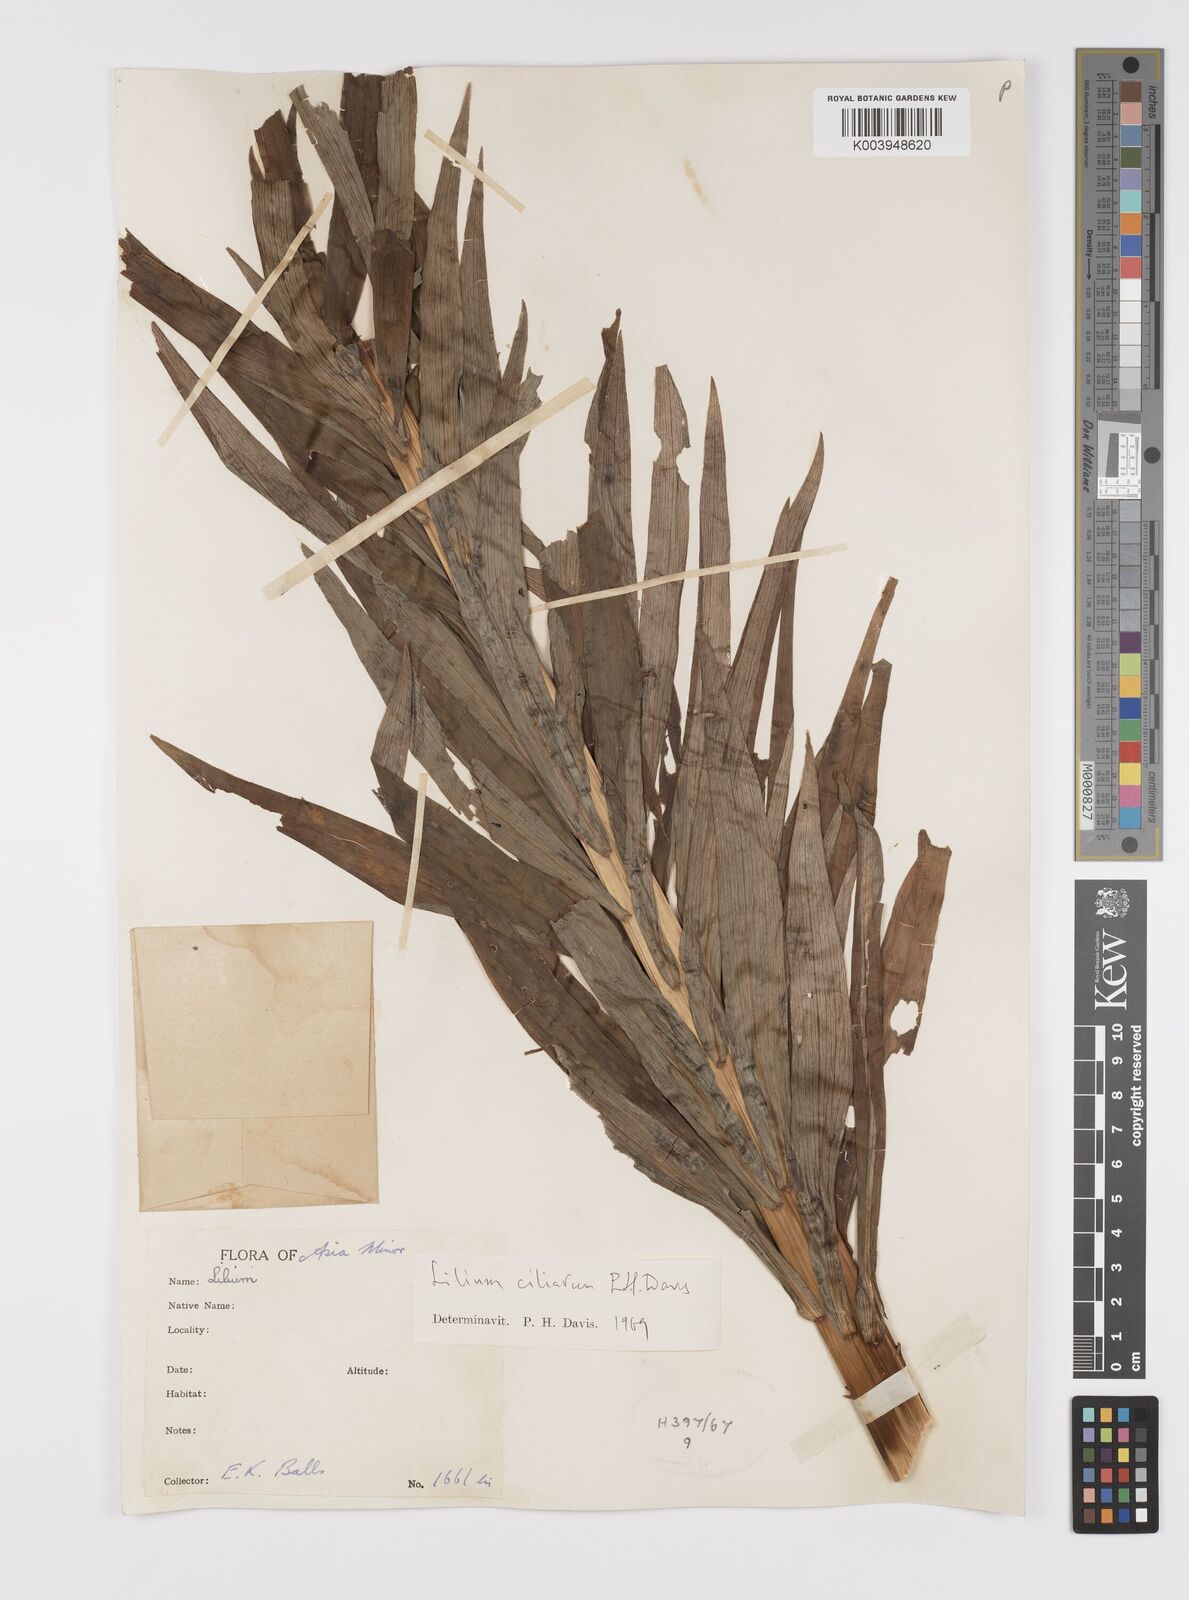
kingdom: Plantae
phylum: Tracheophyta
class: Liliopsida
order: Liliales
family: Liliaceae
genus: Lilium
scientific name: Lilium ciliatum
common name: Ciliate lily
